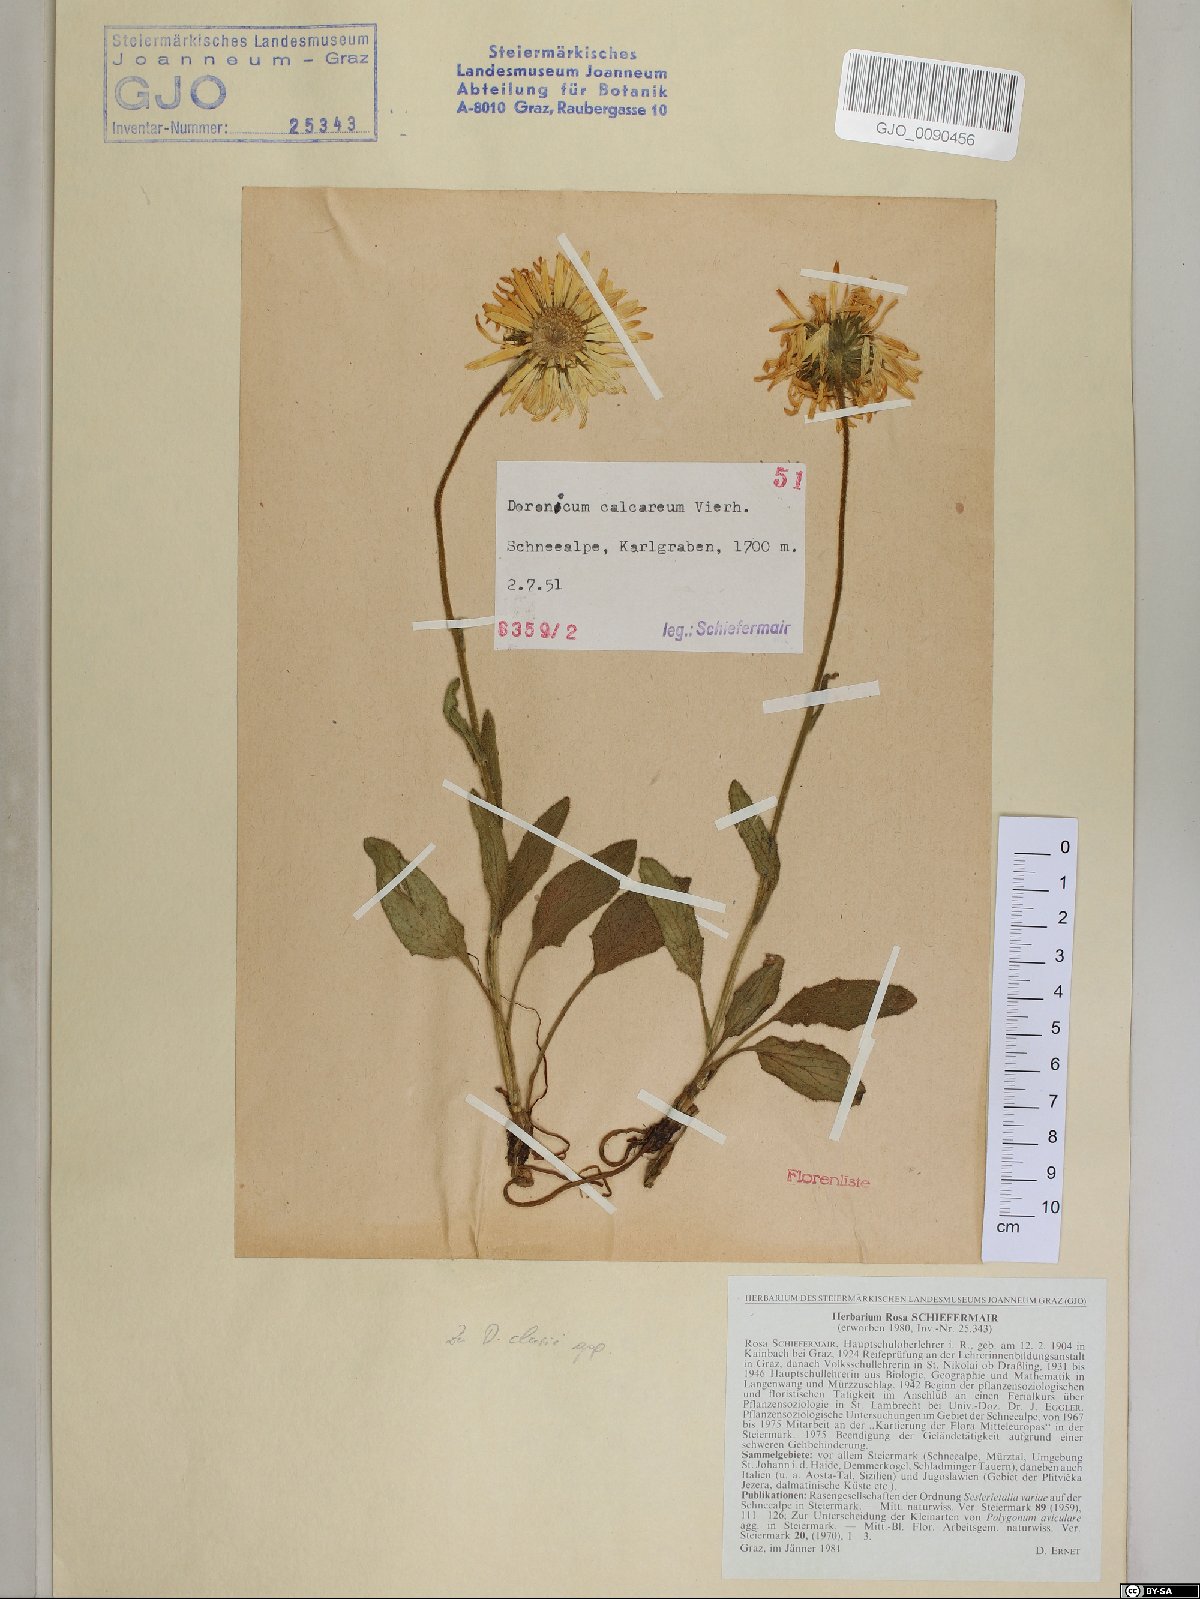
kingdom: Plantae
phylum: Tracheophyta
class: Magnoliopsida
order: Asterales
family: Asteraceae
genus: Doronicum
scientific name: Doronicum glaciale
